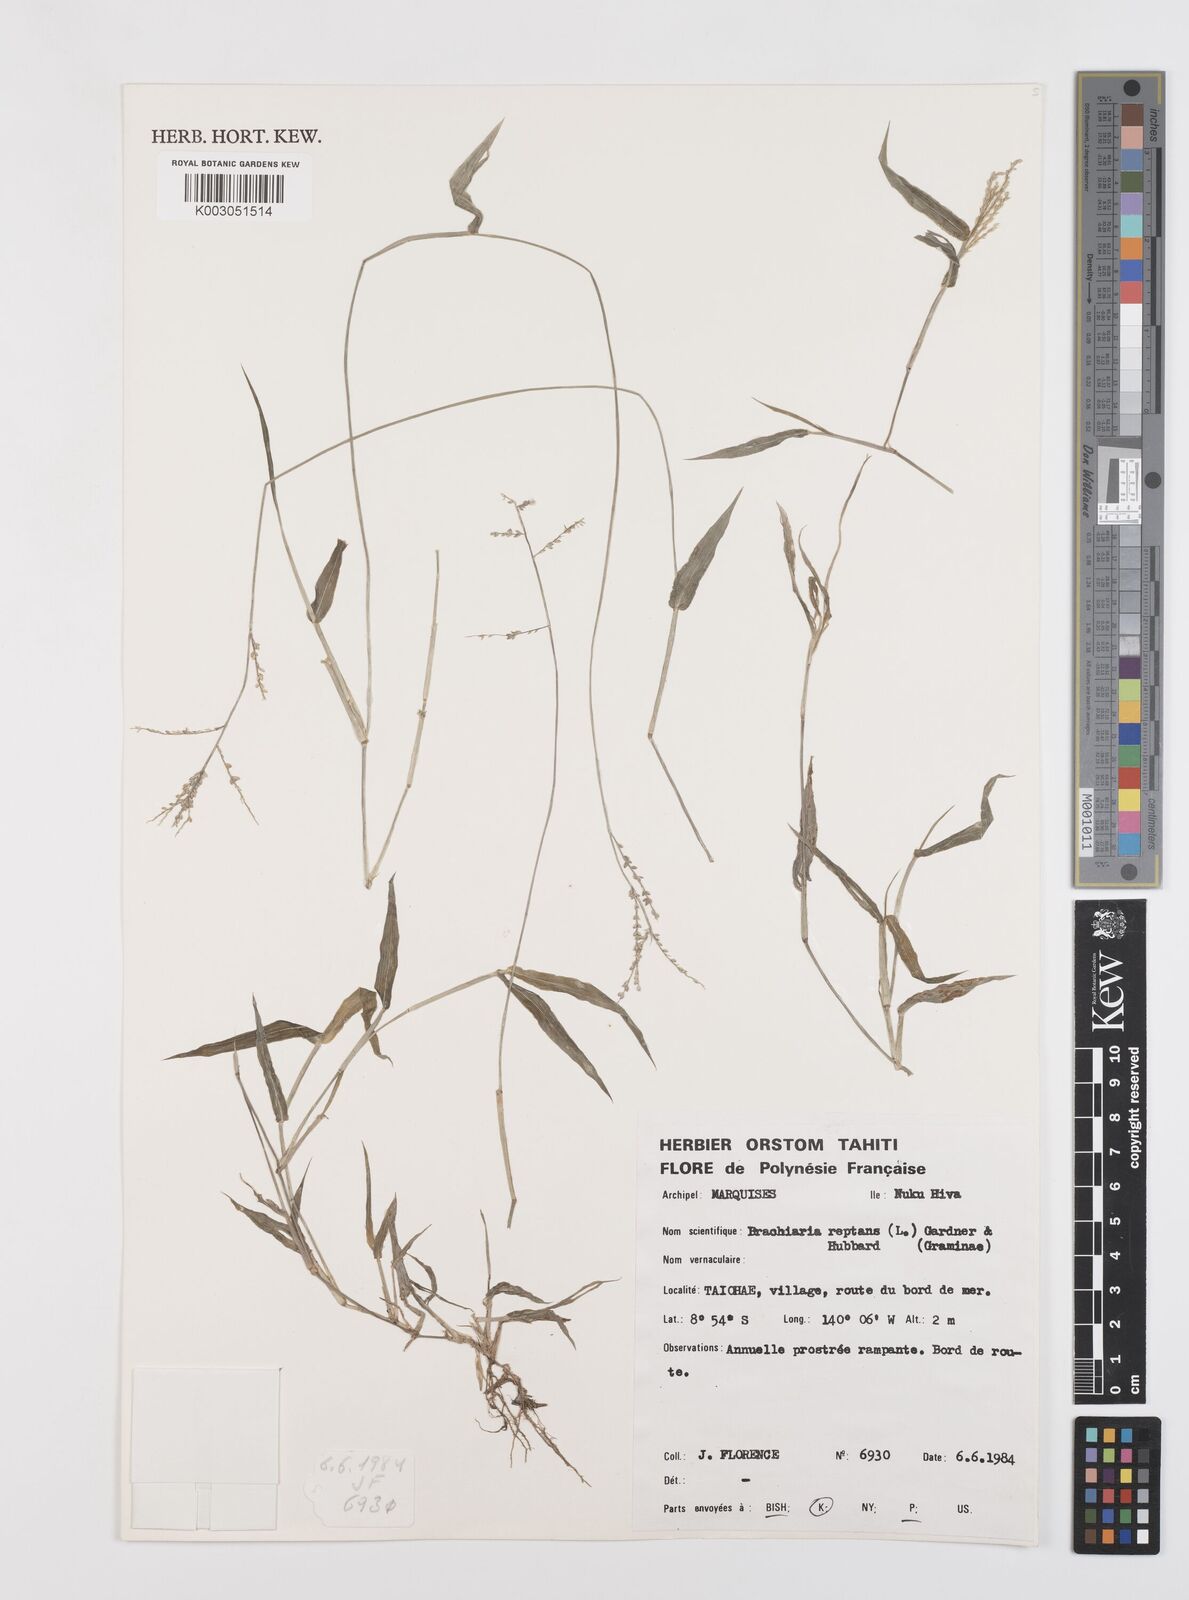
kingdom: Plantae
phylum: Tracheophyta
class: Liliopsida
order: Poales
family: Poaceae
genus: Urochloa
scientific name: Urochloa reptans
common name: Sprawling signalgrass
